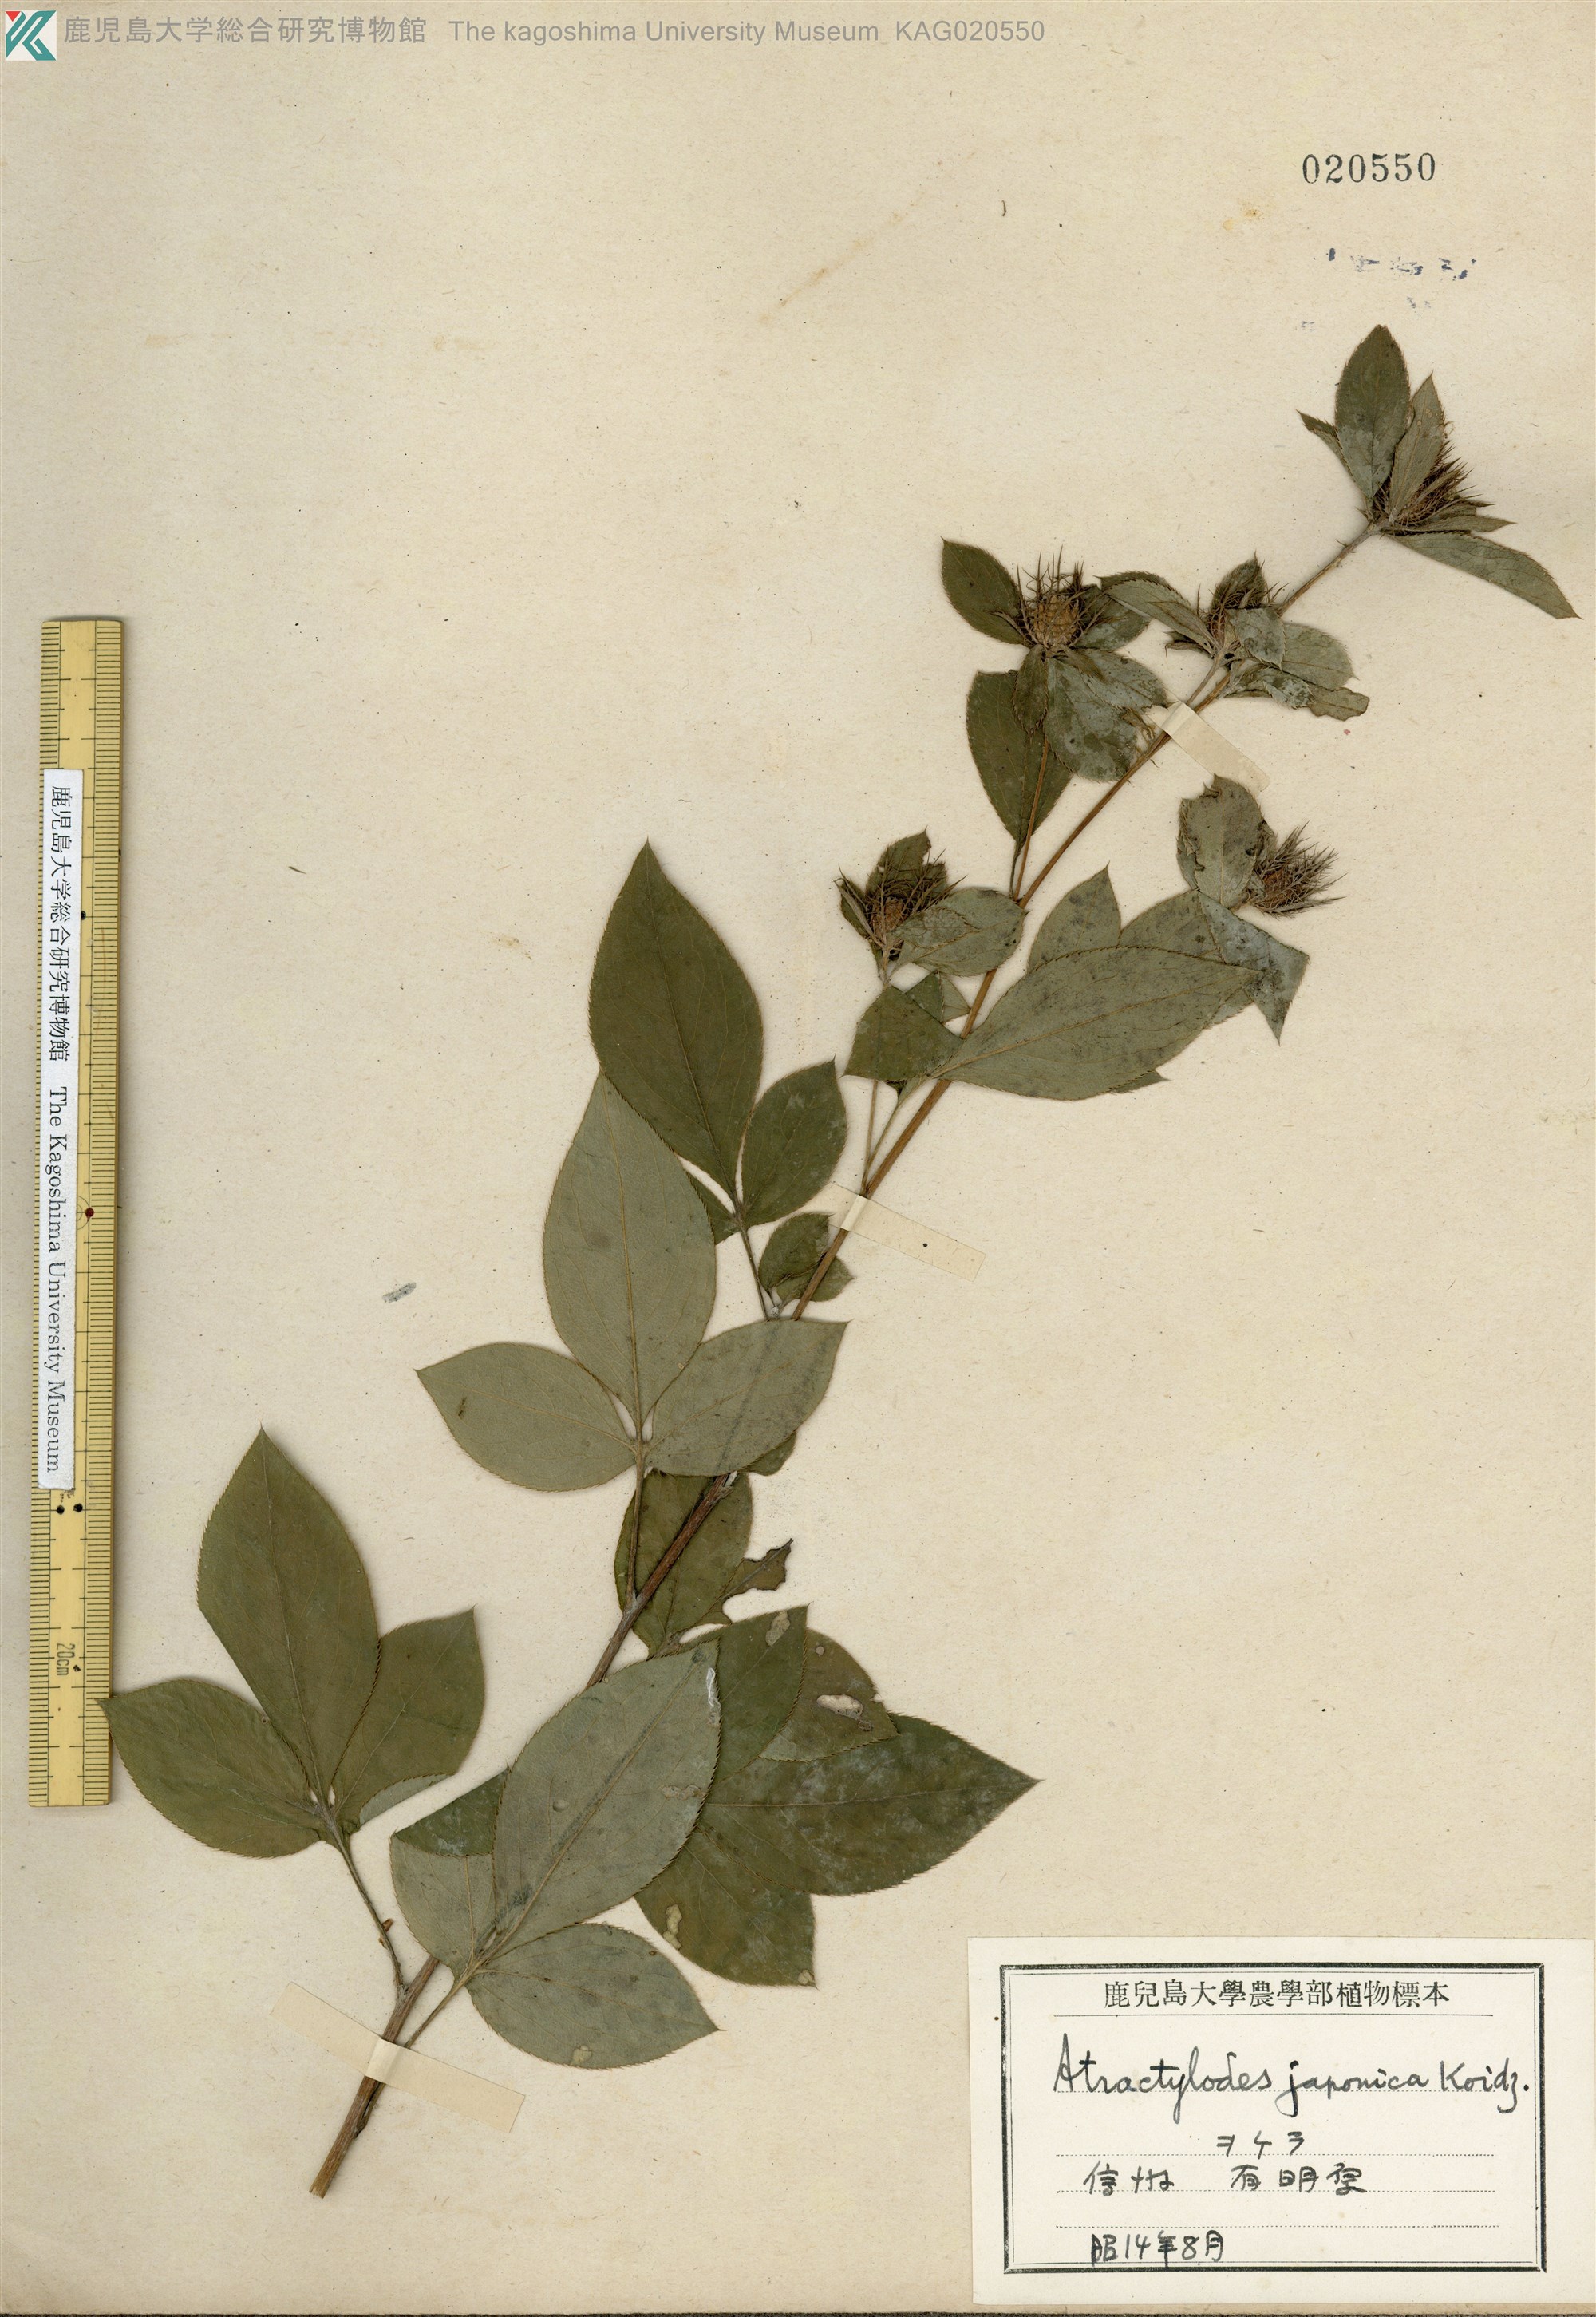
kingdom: Plantae
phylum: Tracheophyta
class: Magnoliopsida
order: Asterales
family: Asteraceae
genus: Atractylodes
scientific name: Atractylodes lancea
